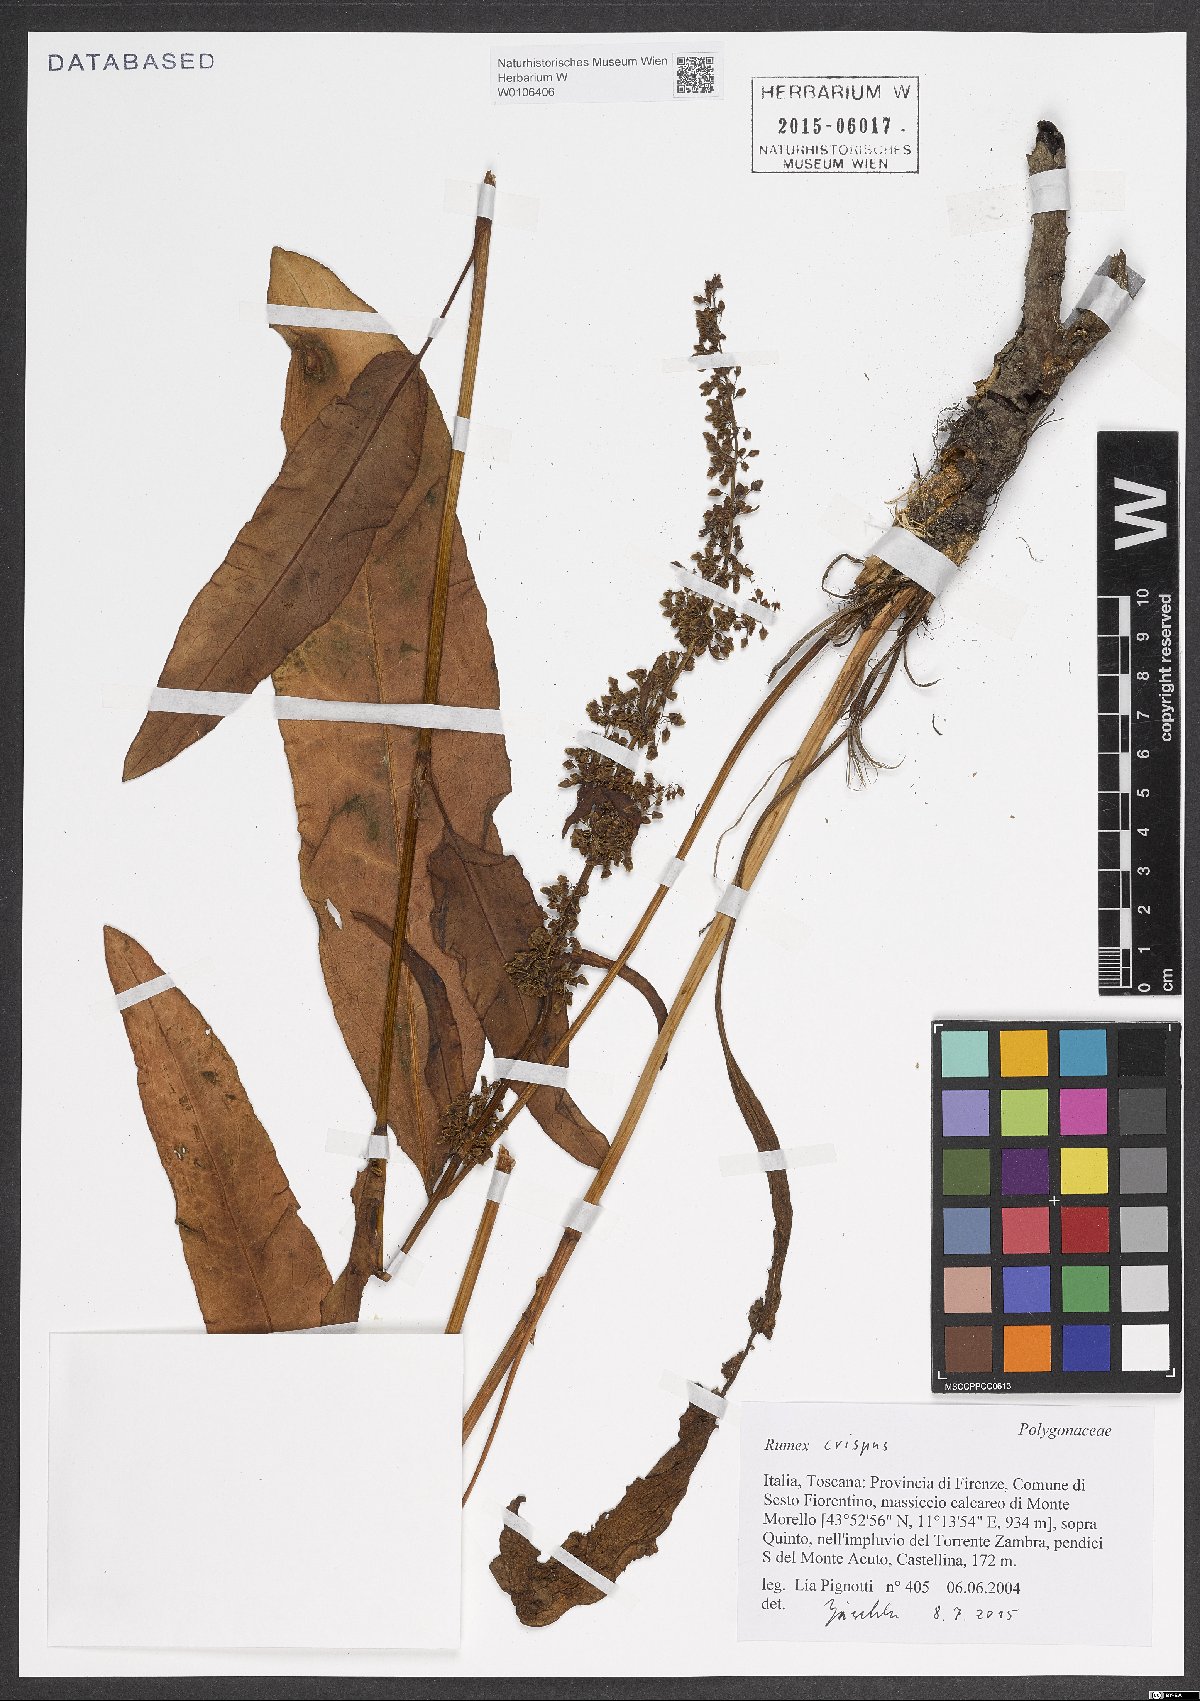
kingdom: Plantae
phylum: Tracheophyta
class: Magnoliopsida
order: Caryophyllales
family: Polygonaceae
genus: Rumex
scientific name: Rumex crispus
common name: Curled dock
